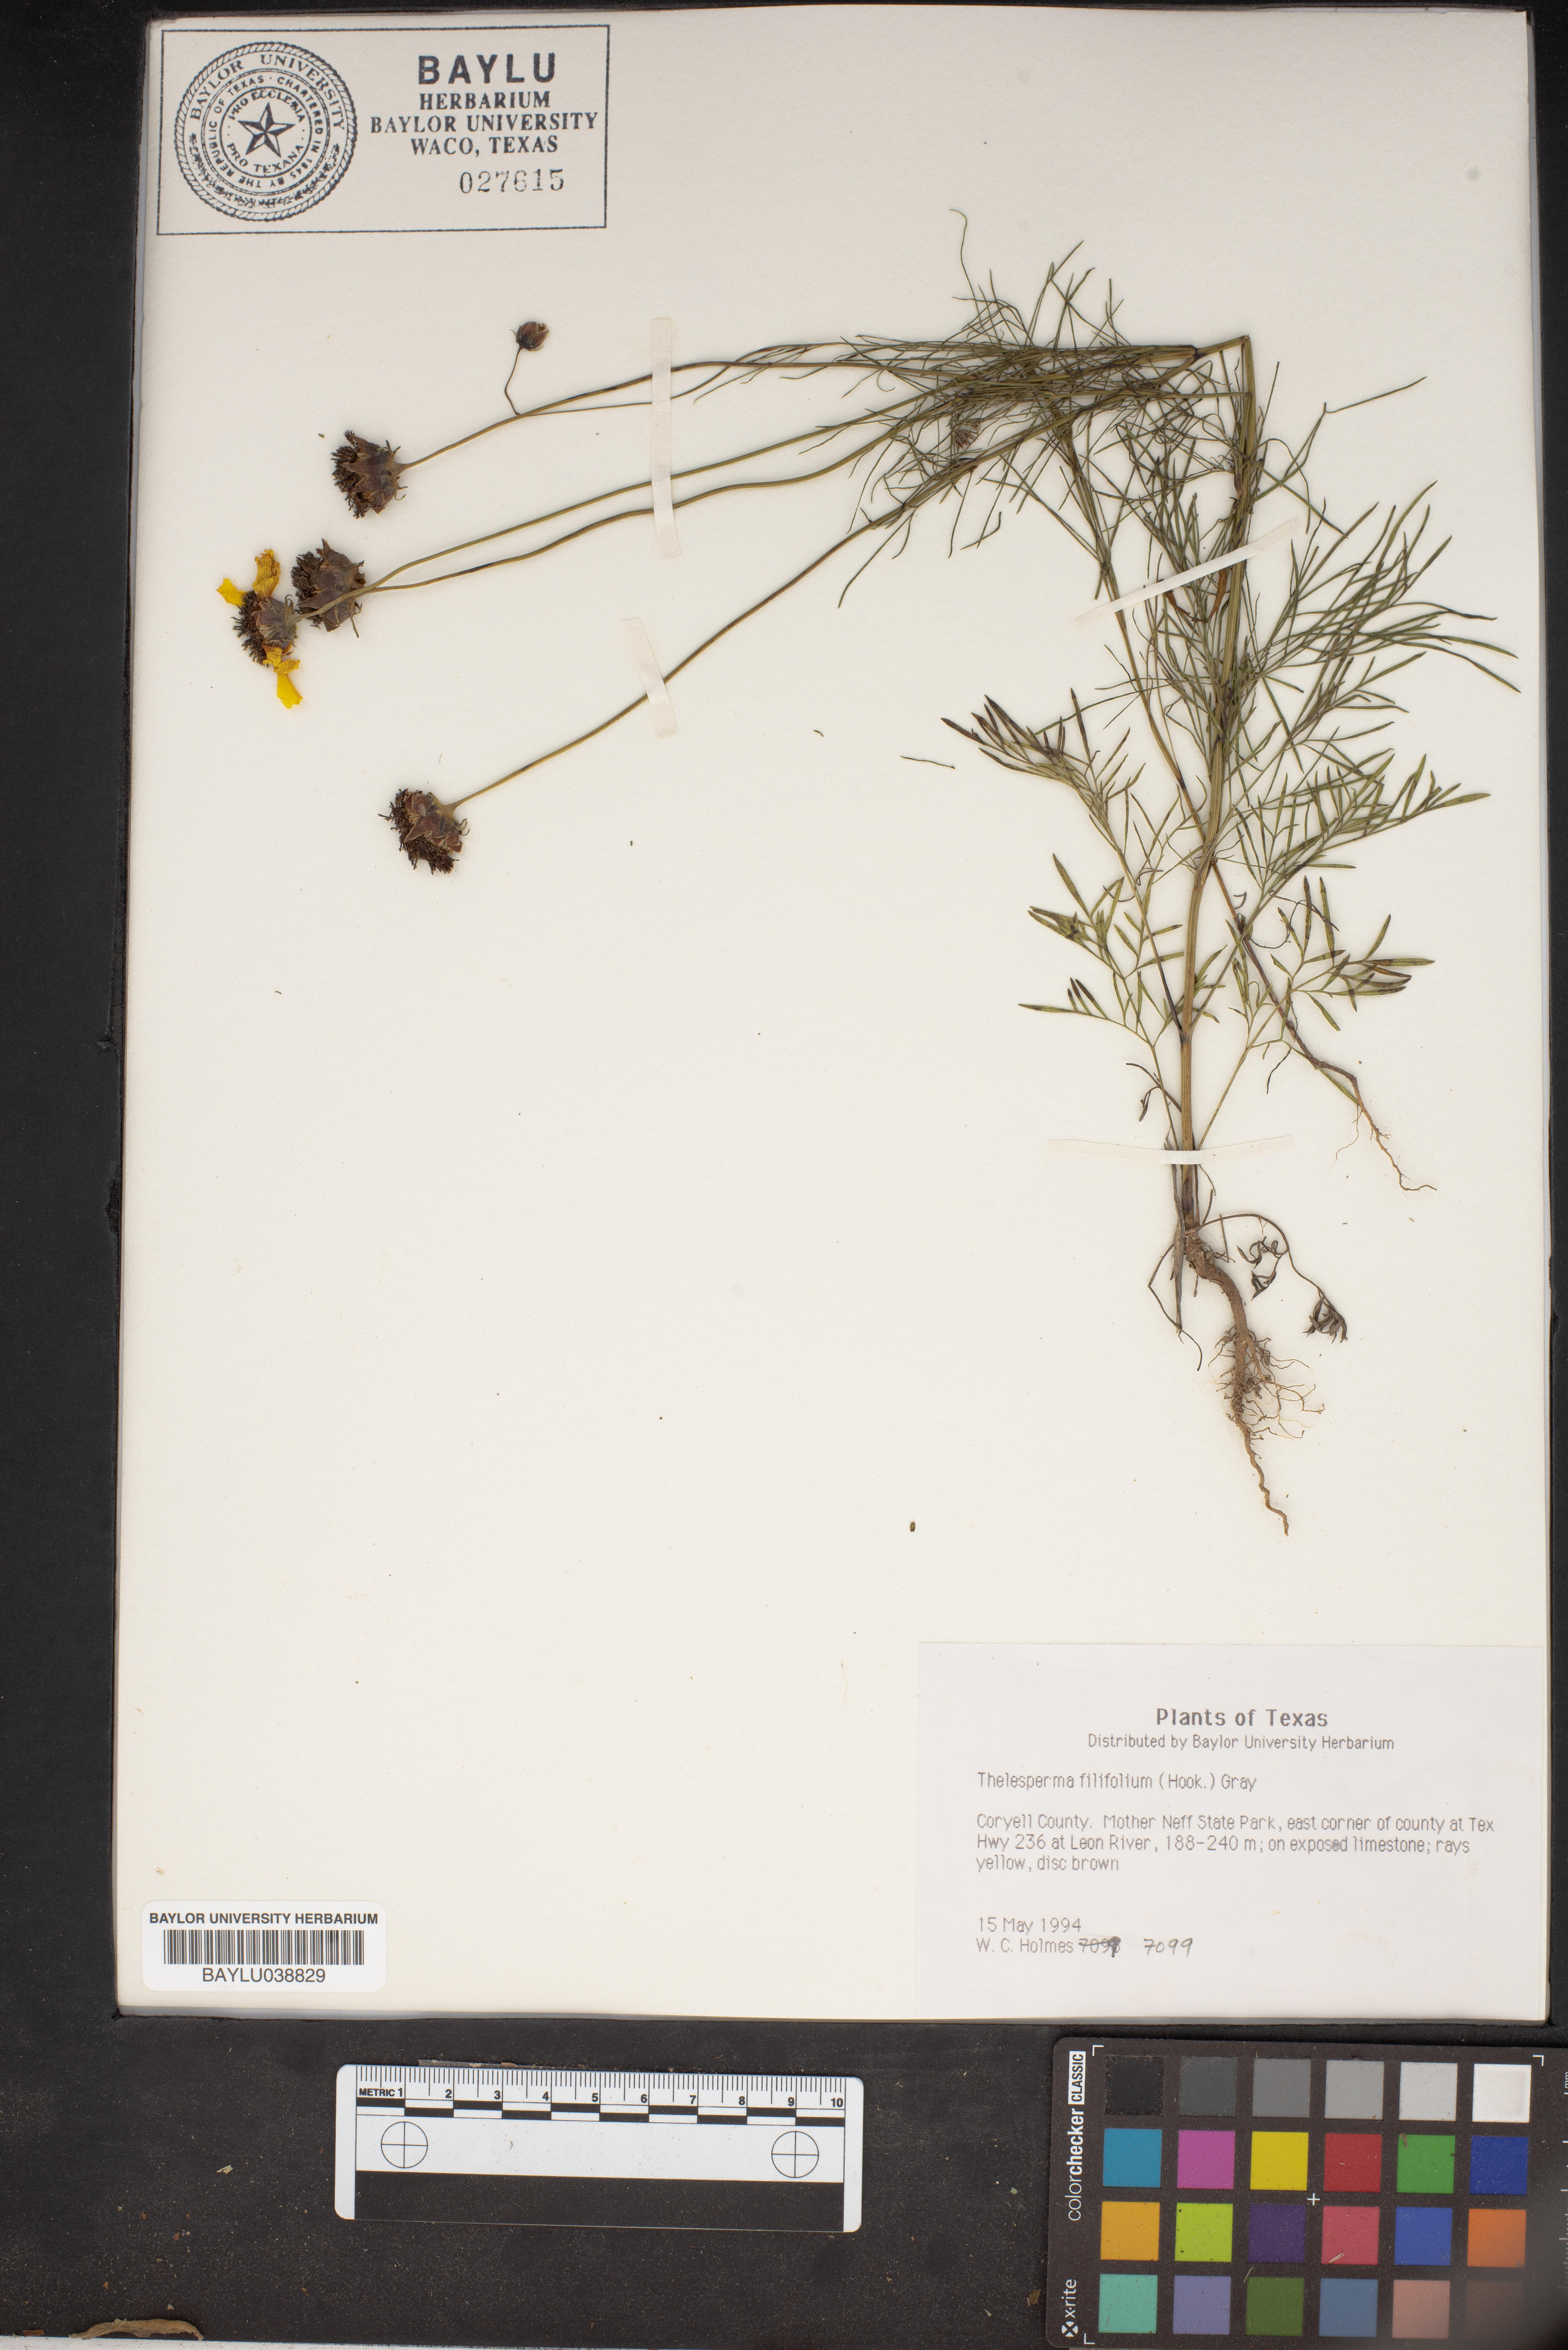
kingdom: Plantae
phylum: Tracheophyta
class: Magnoliopsida
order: Asterales
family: Asteraceae
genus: Thelesperma
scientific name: Thelesperma filifolium
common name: Stiff greenthread
